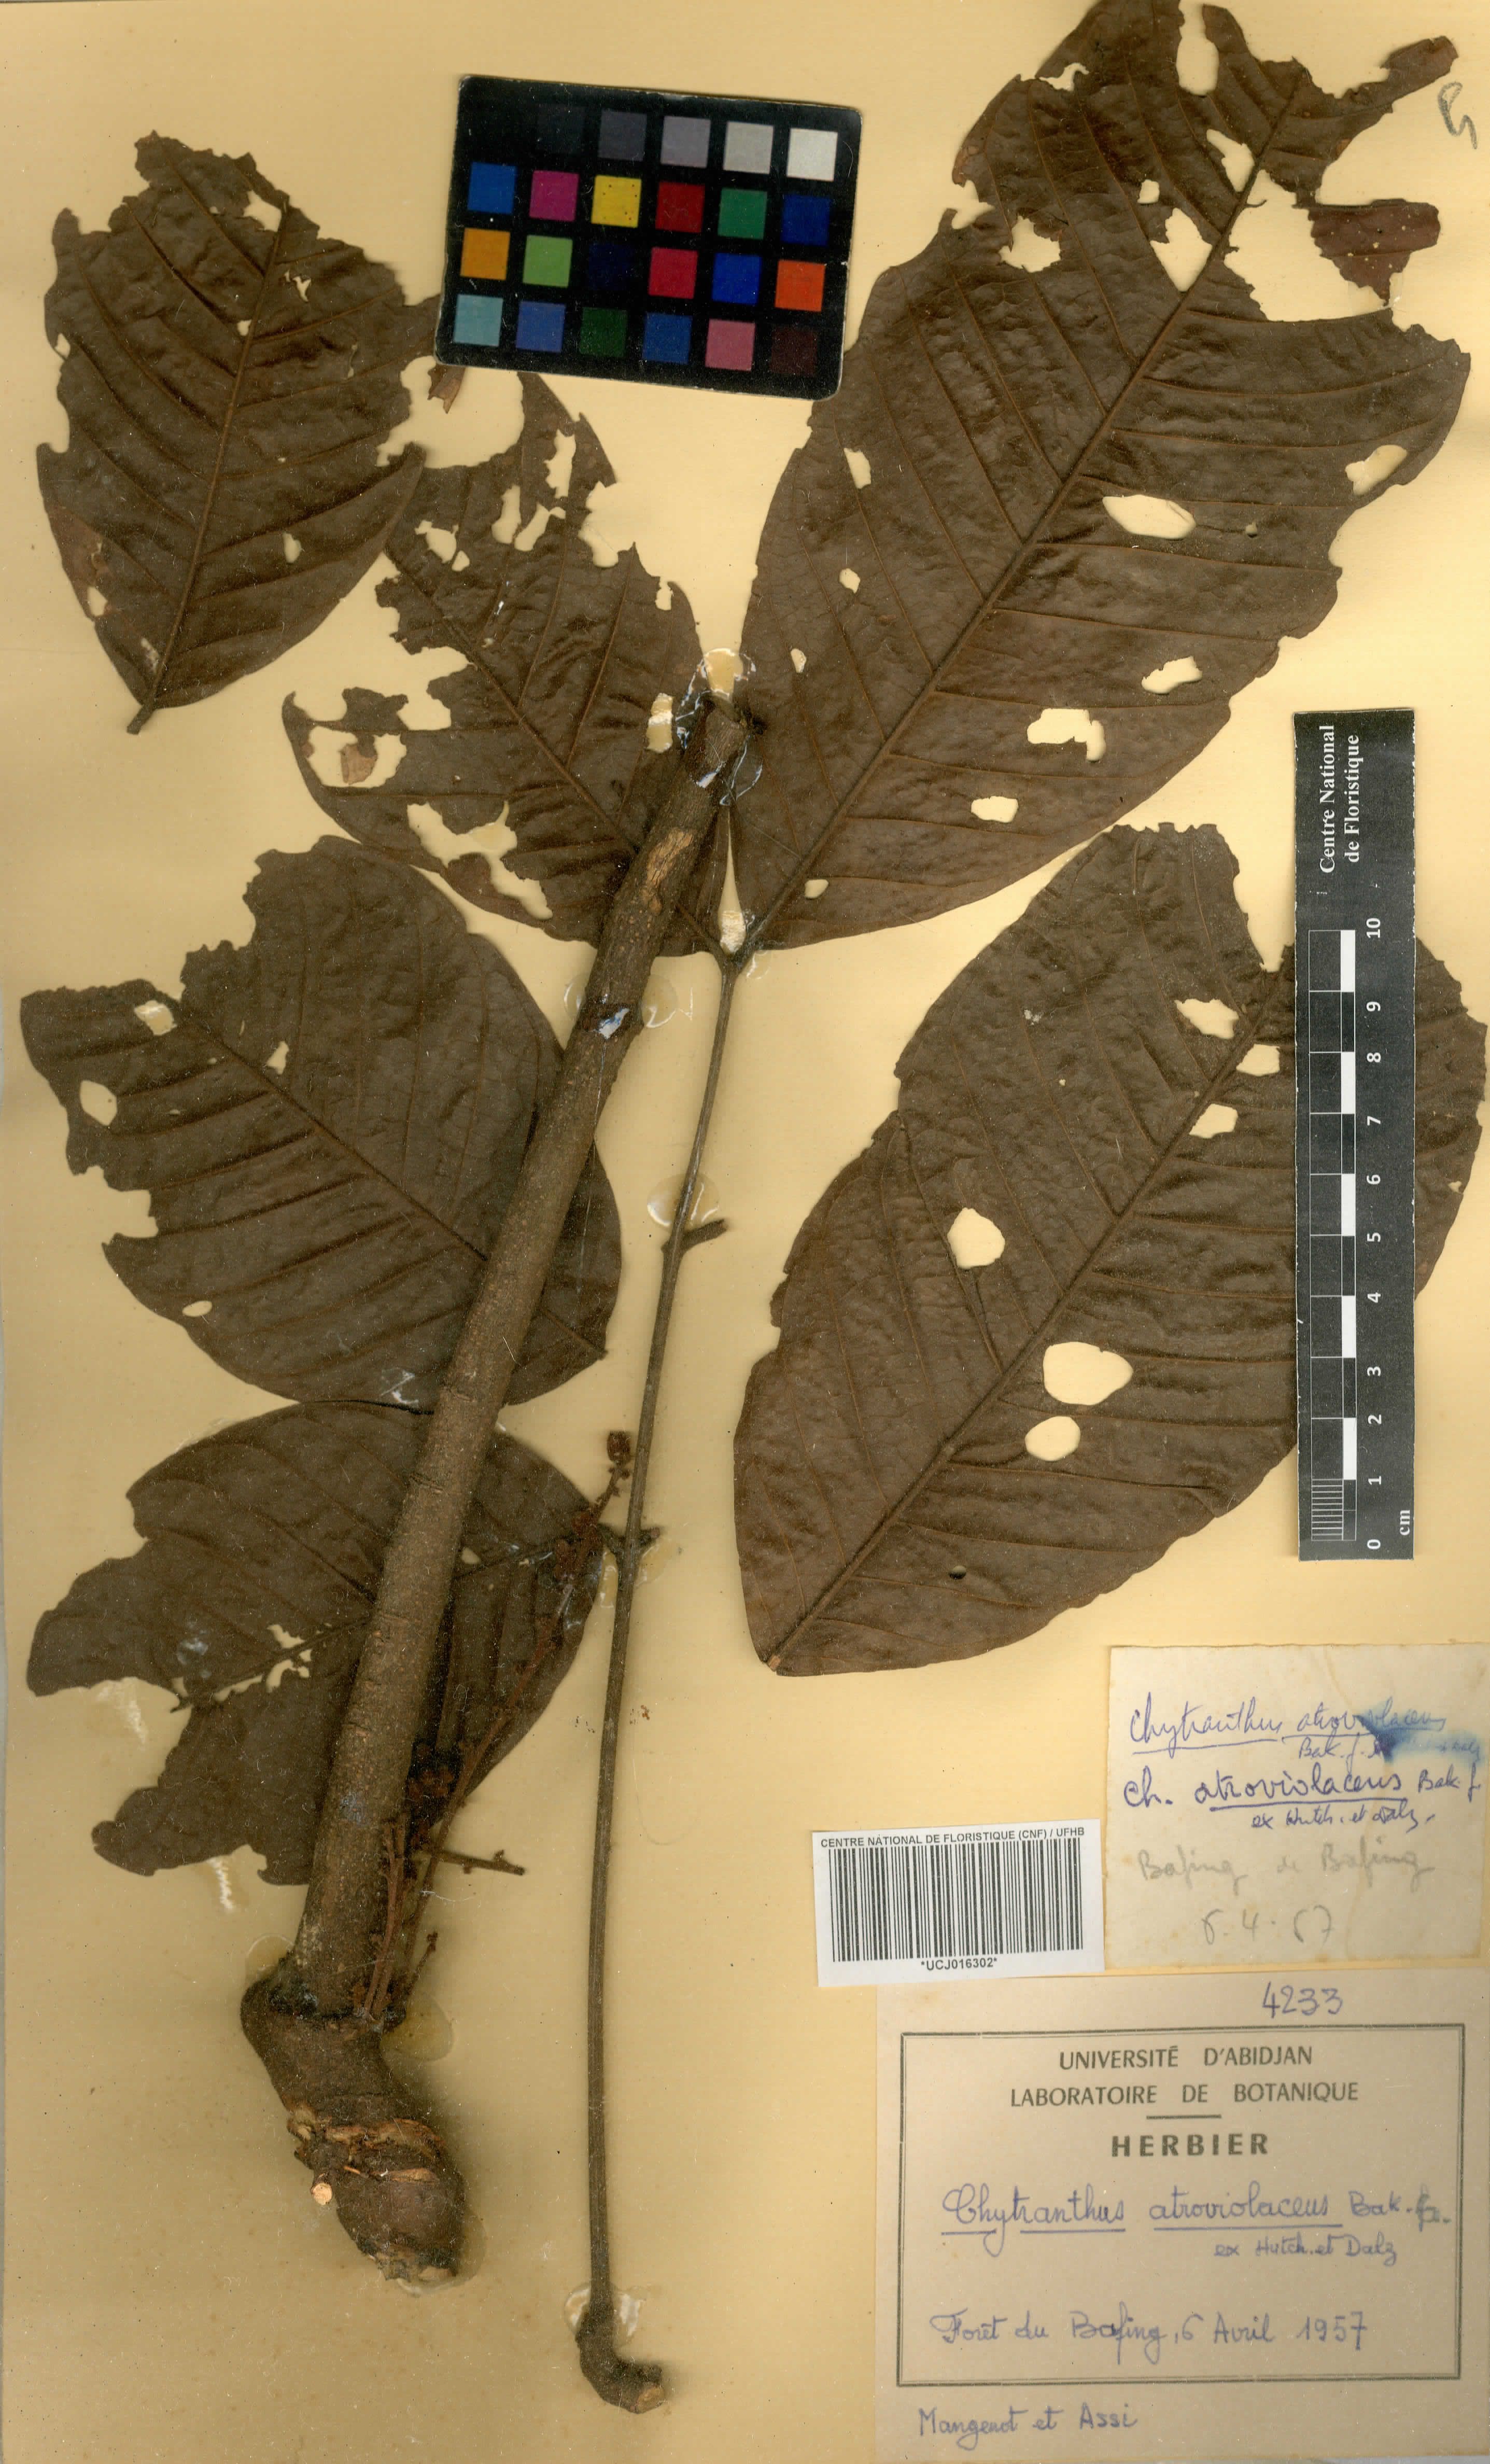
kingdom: Plantae
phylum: Tracheophyta
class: Magnoliopsida
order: Sapindales
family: Sapindaceae
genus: Chytranthus
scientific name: Chytranthus atroviolaceus
